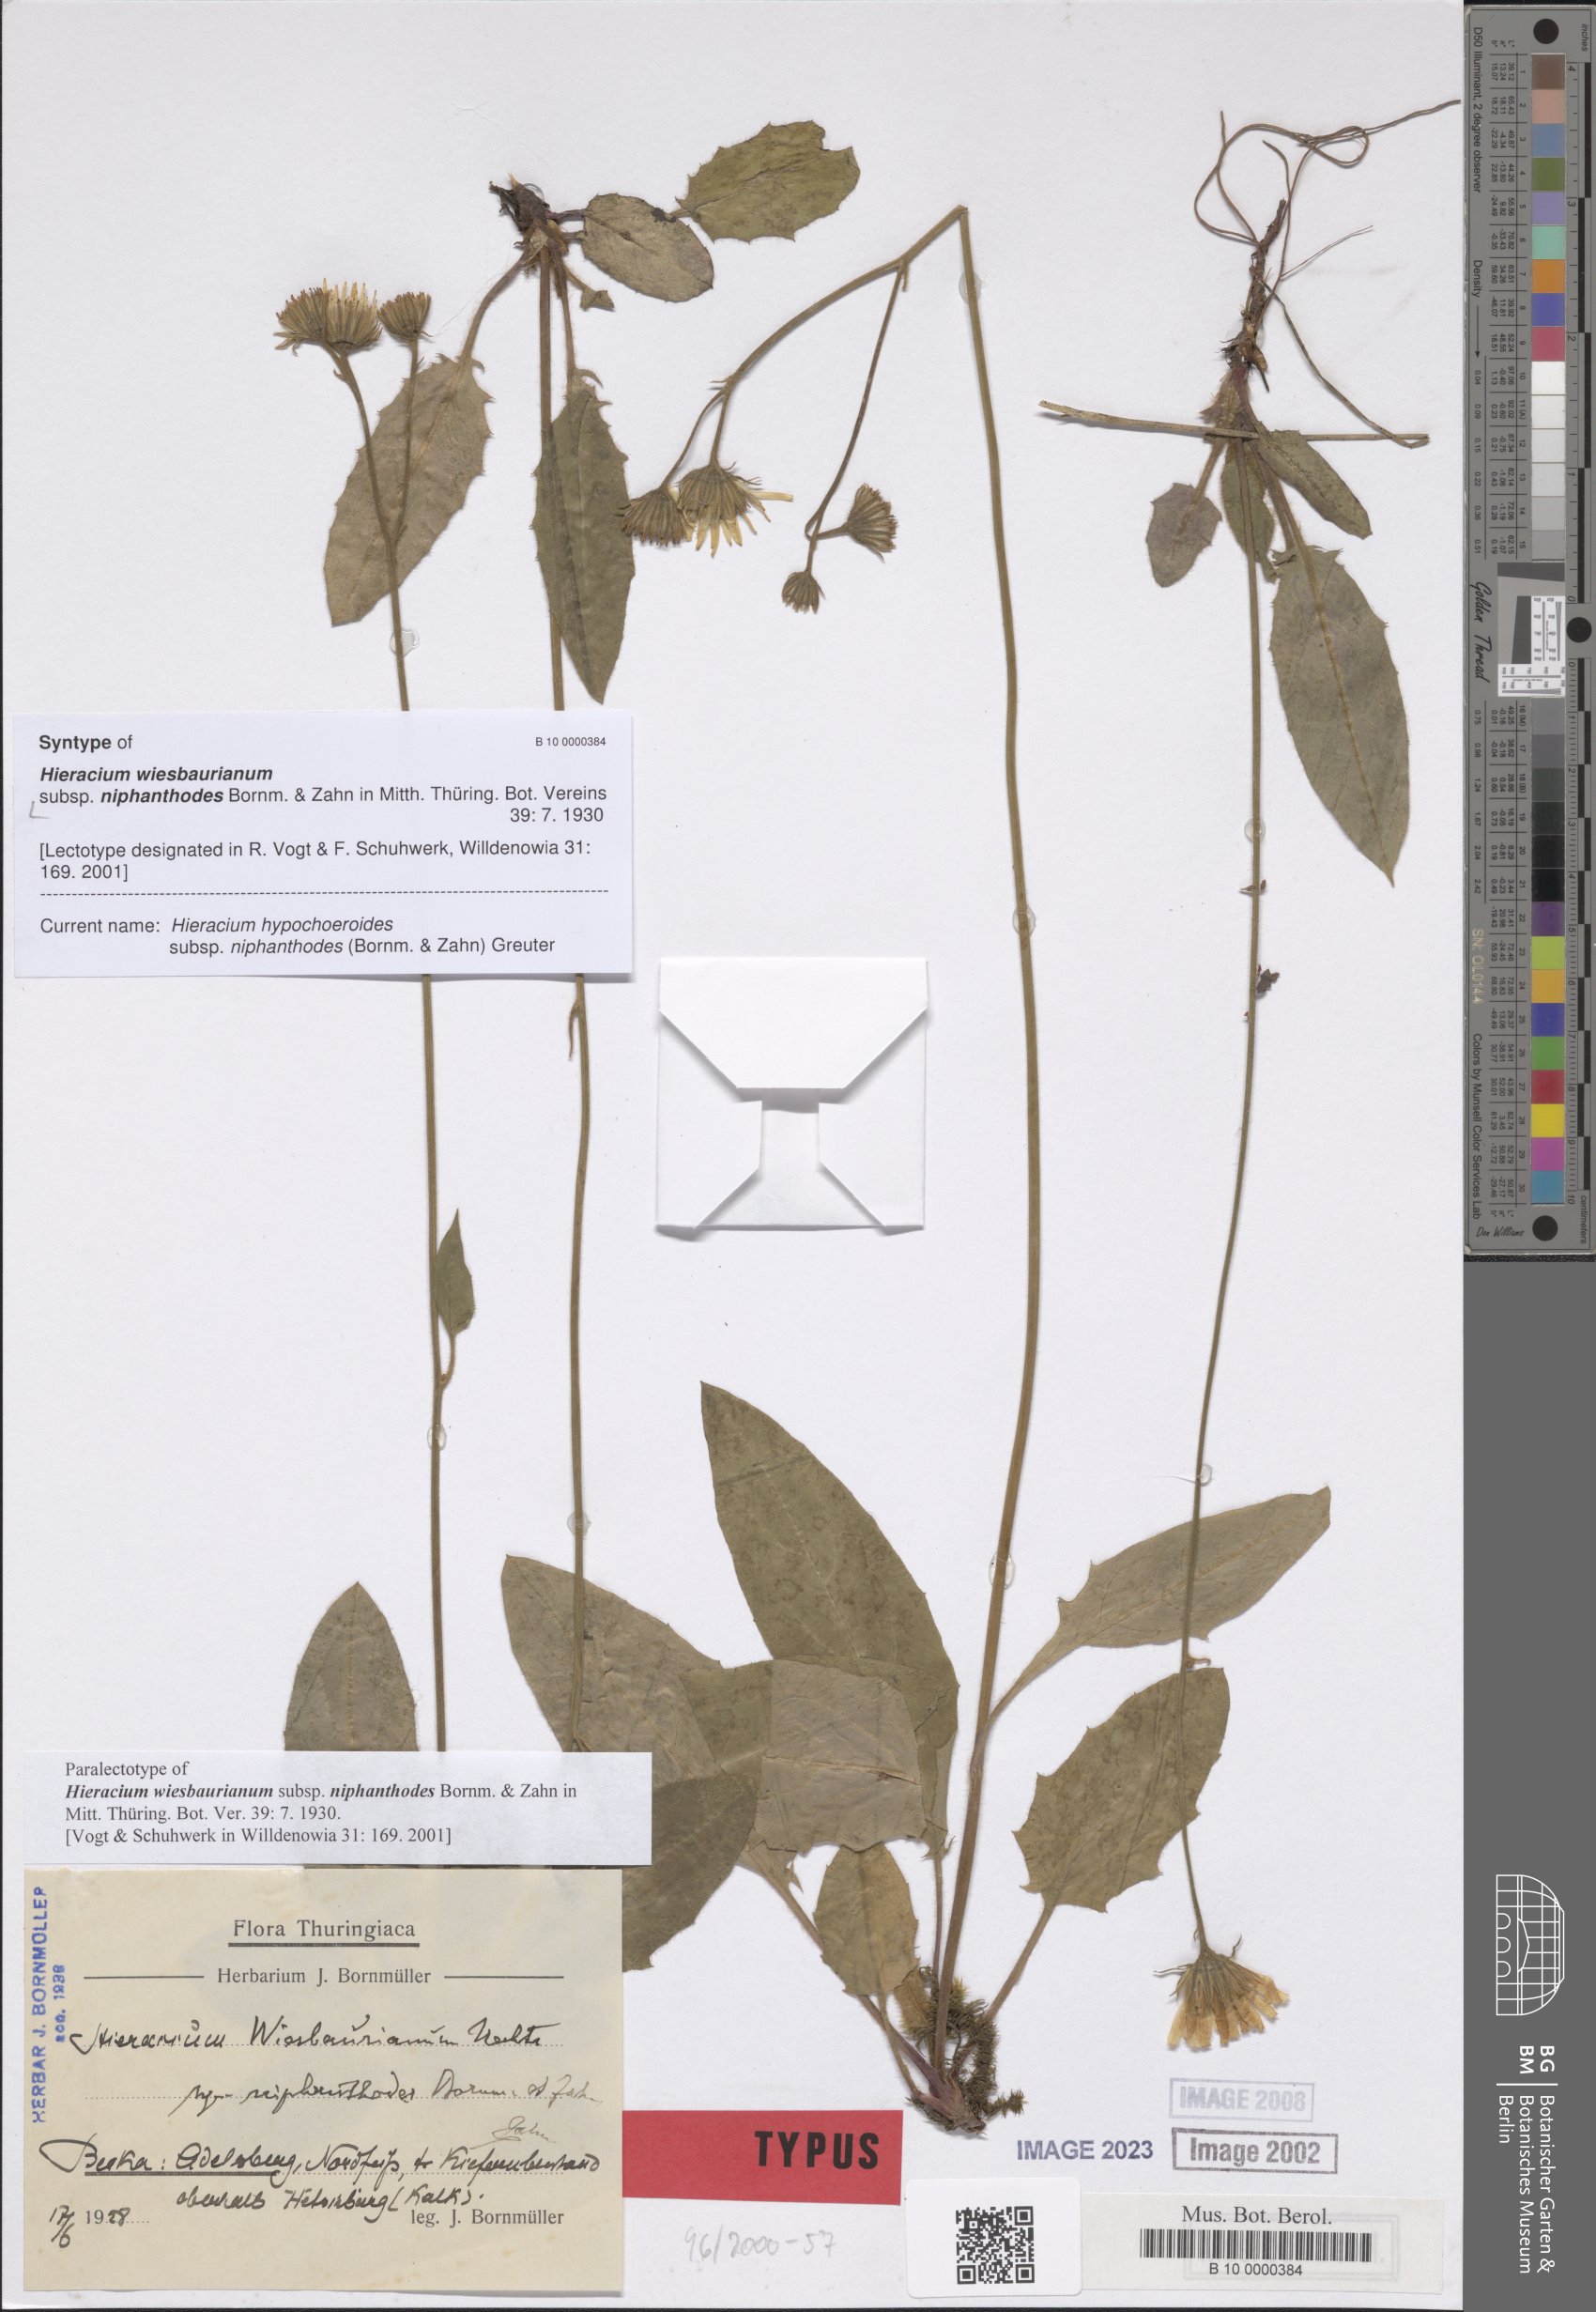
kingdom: Plantae
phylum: Tracheophyta
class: Magnoliopsida
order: Asterales
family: Asteraceae
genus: Hieracium
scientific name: Hieracium hypochoeroides
